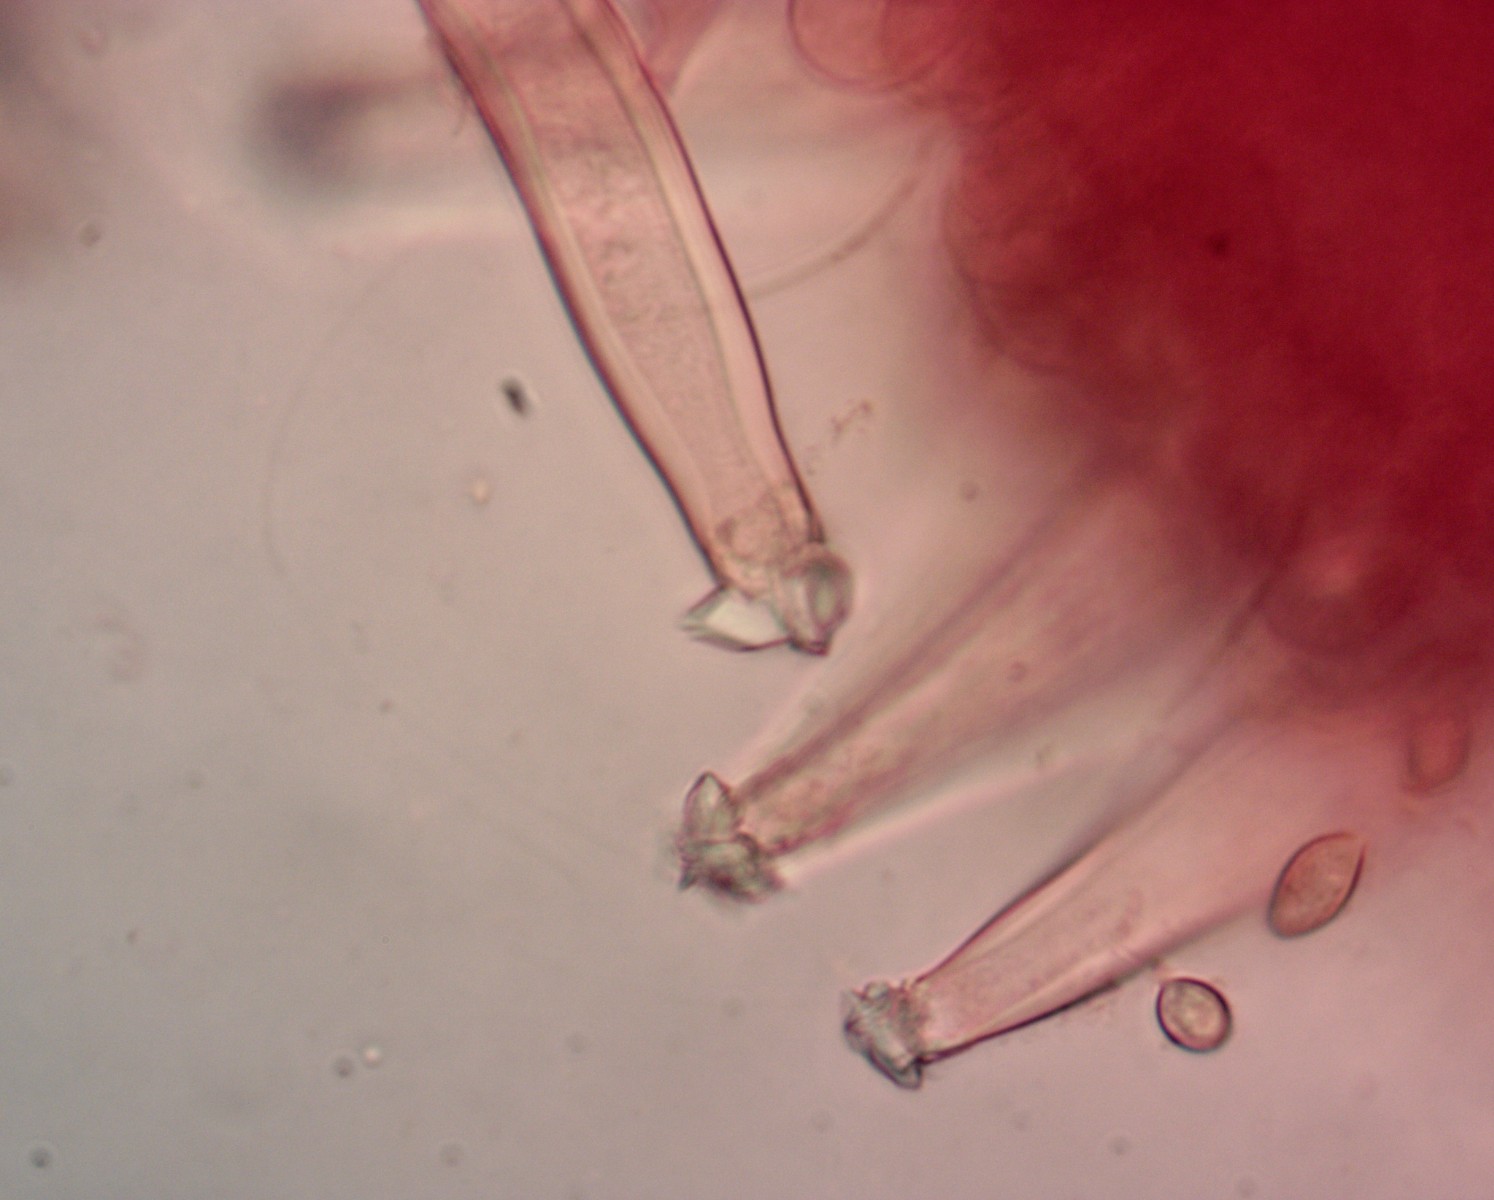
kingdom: Fungi
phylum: Basidiomycota
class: Agaricomycetes
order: Agaricales
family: Inocybaceae
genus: Inocybe
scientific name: Inocybe tigrina
